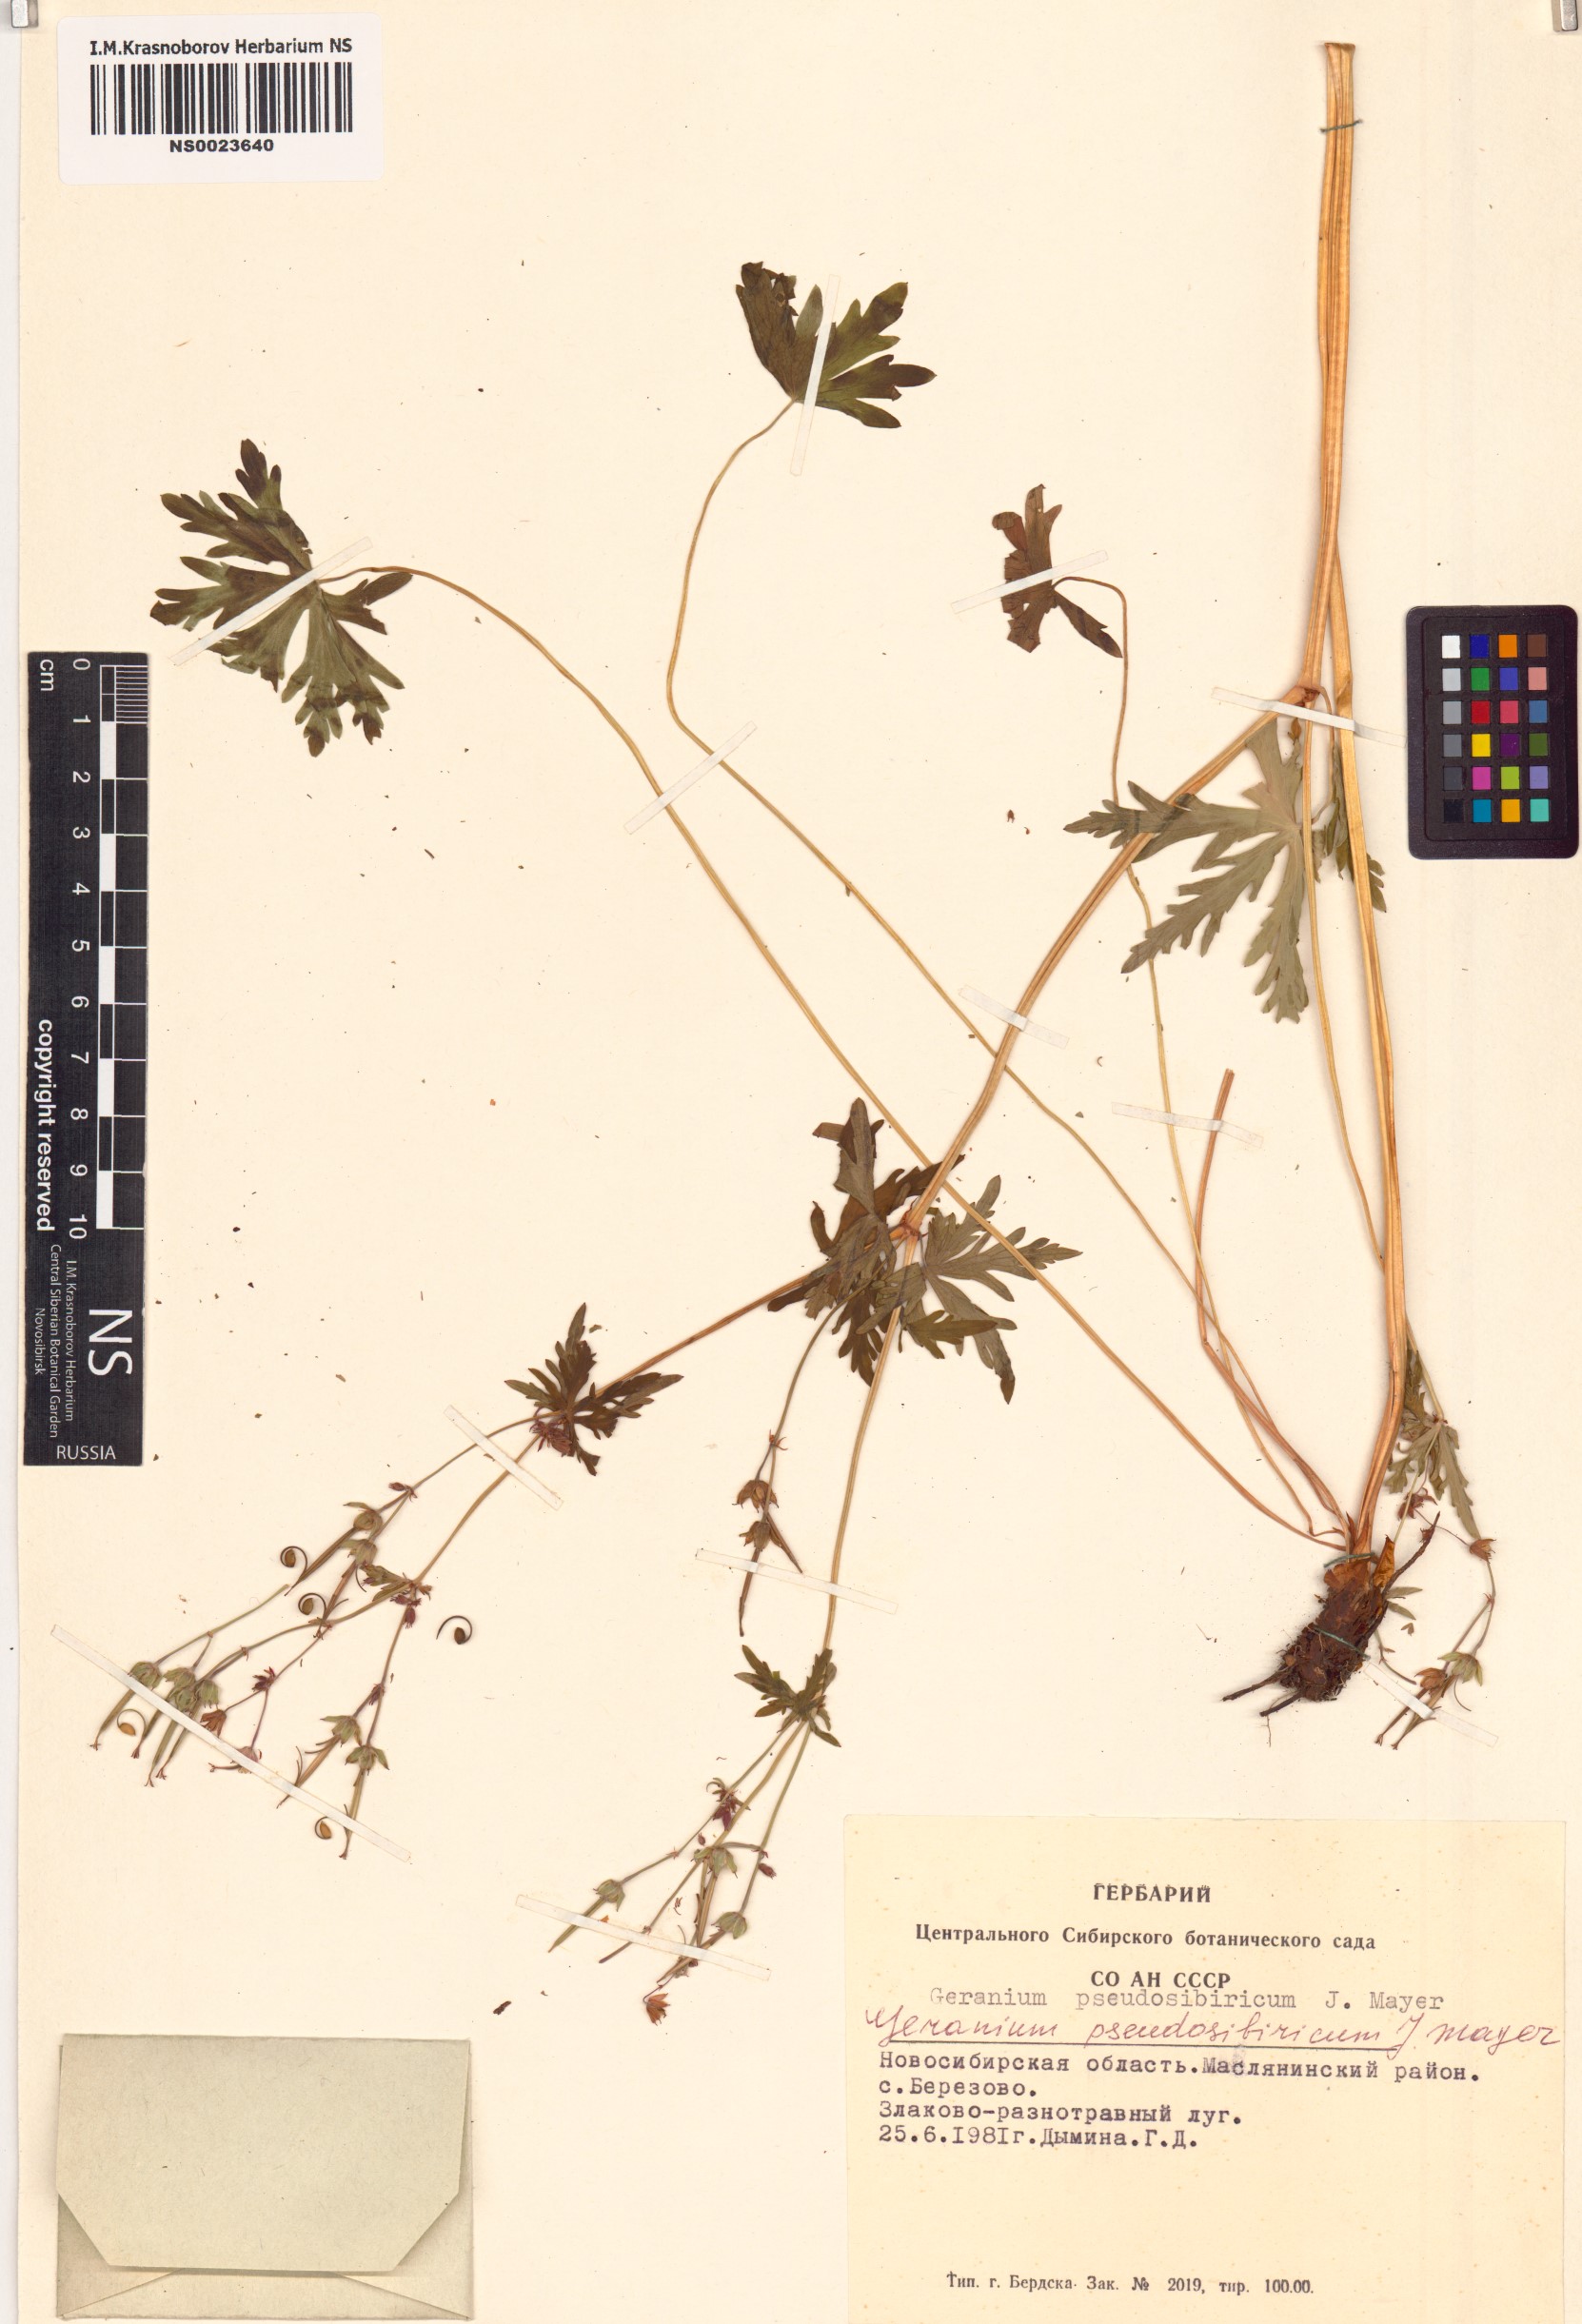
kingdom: Plantae
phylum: Tracheophyta
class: Magnoliopsida
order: Geraniales
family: Geraniaceae
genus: Geranium
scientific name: Geranium pseudosibiricum
